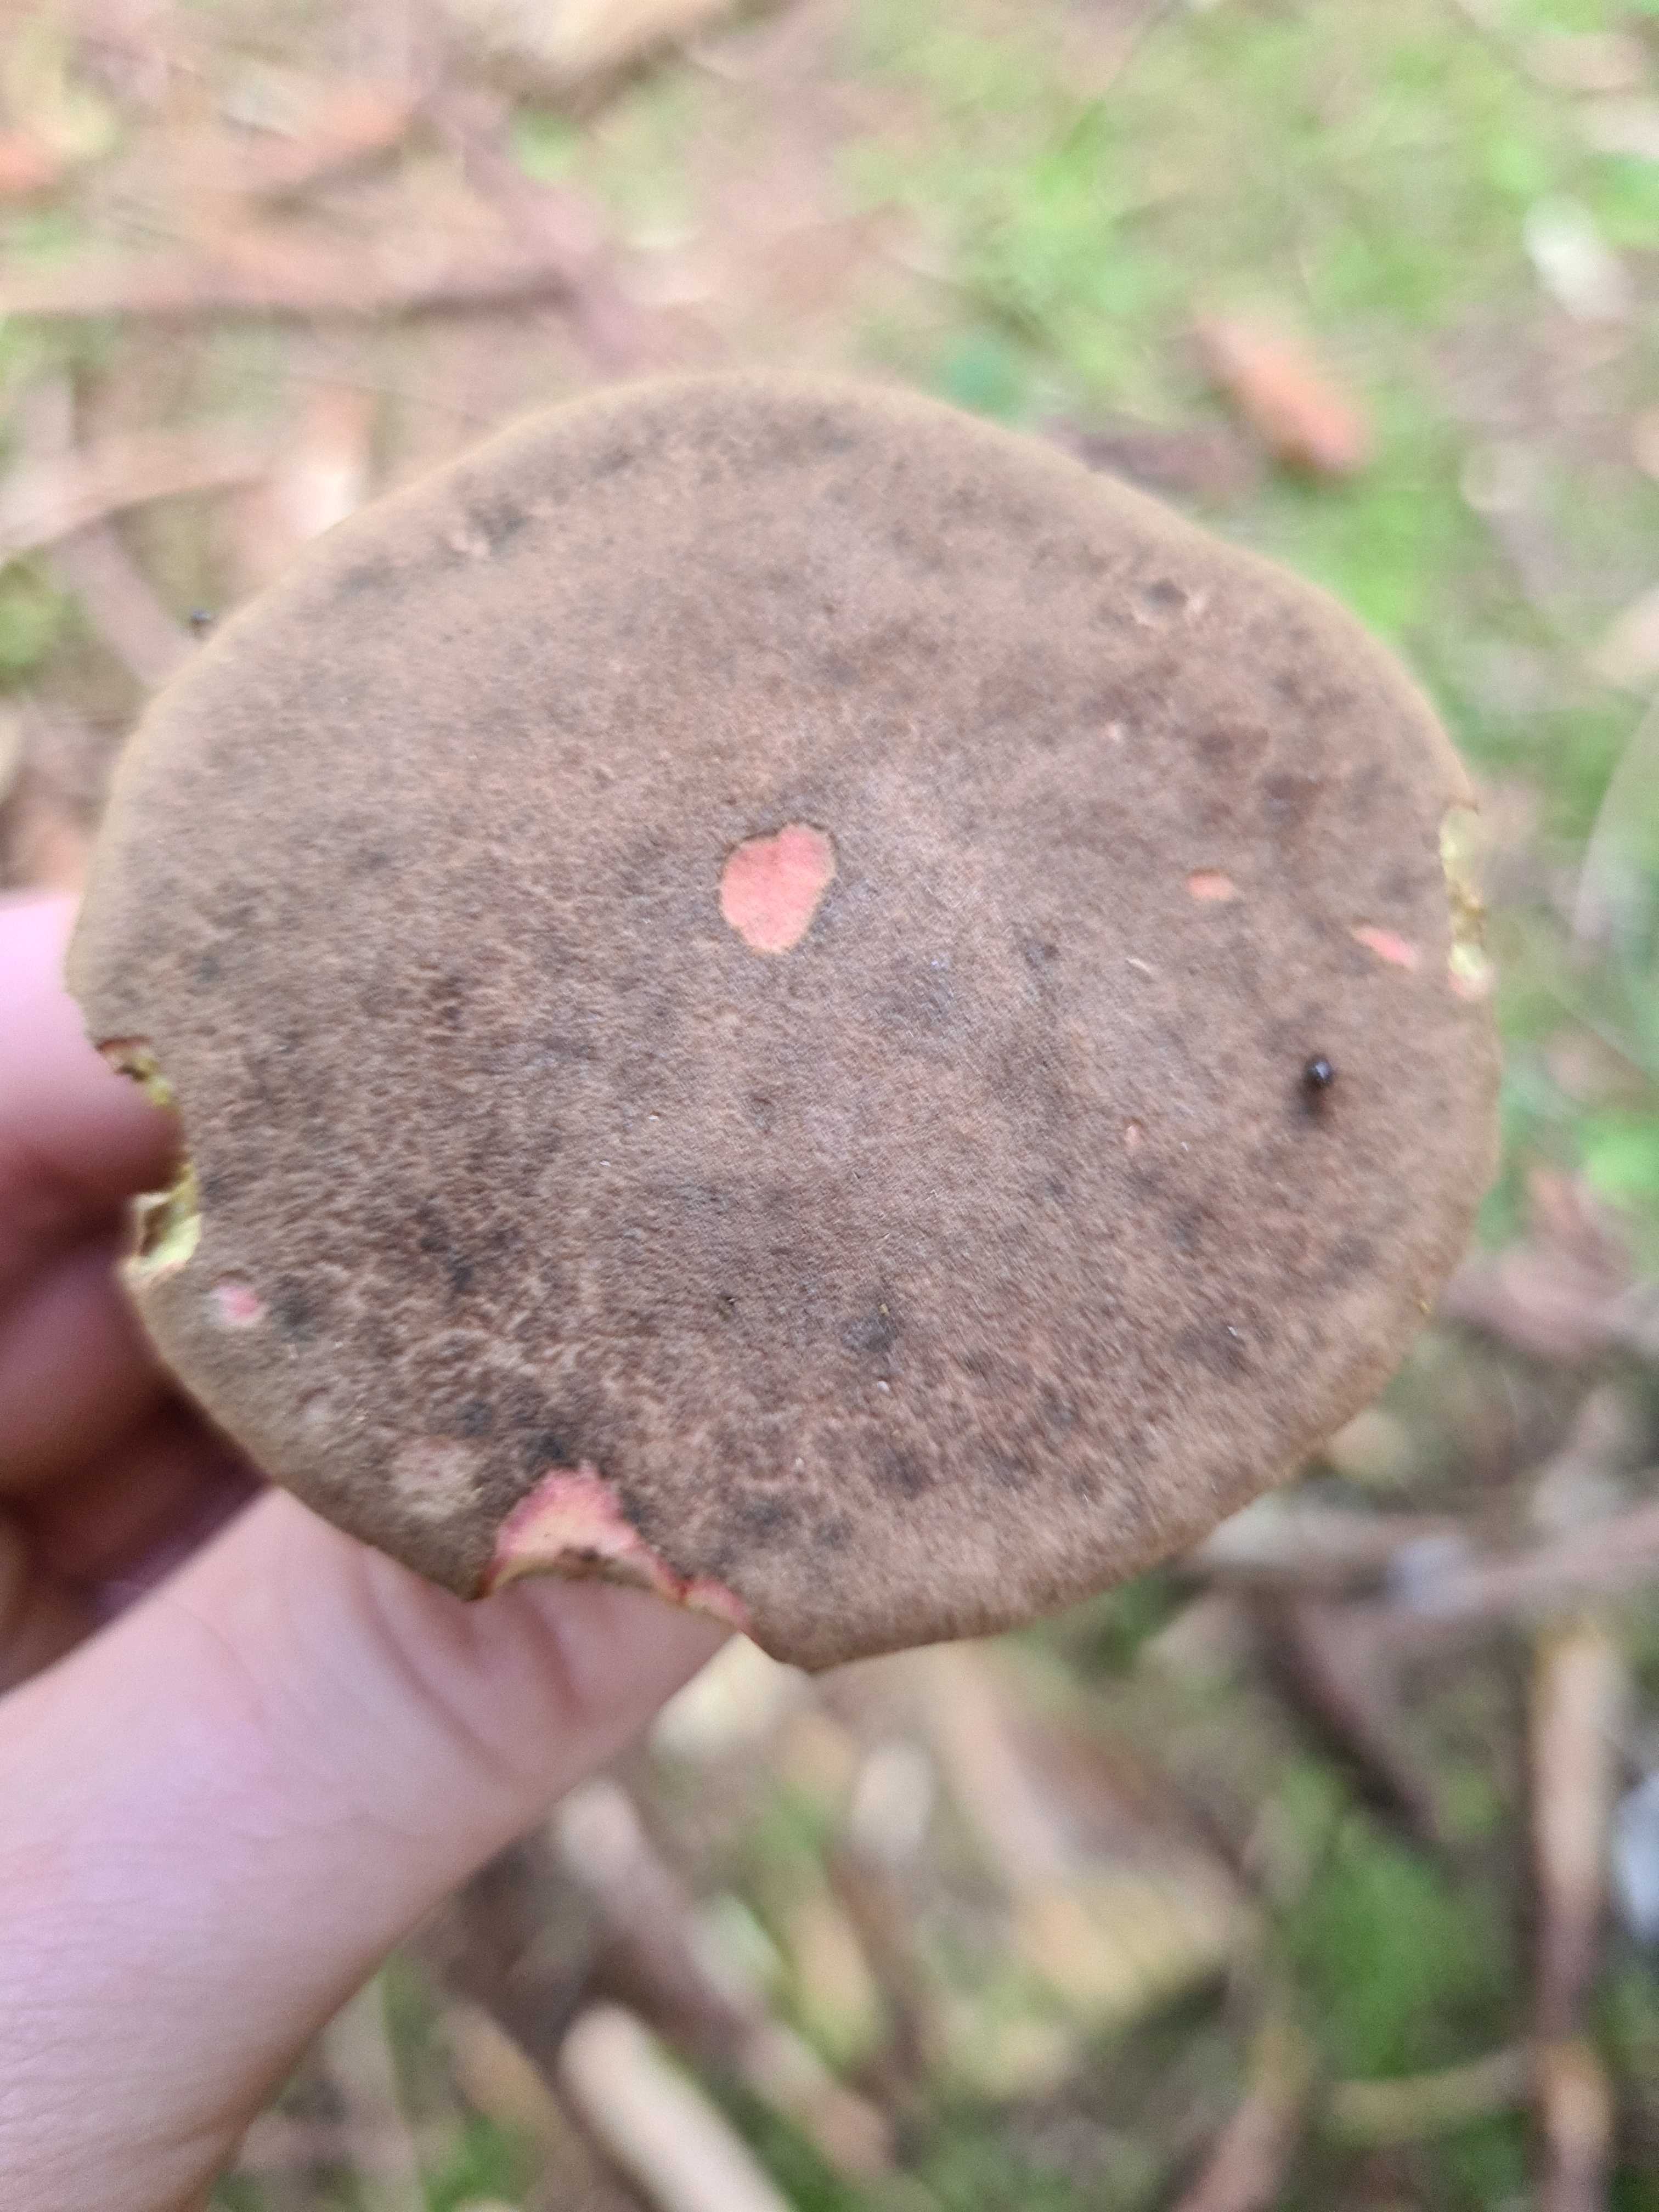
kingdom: Fungi
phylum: Basidiomycota
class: Agaricomycetes
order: Boletales
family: Boletaceae
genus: Xerocomellus
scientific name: Xerocomellus
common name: dværgrørhat
